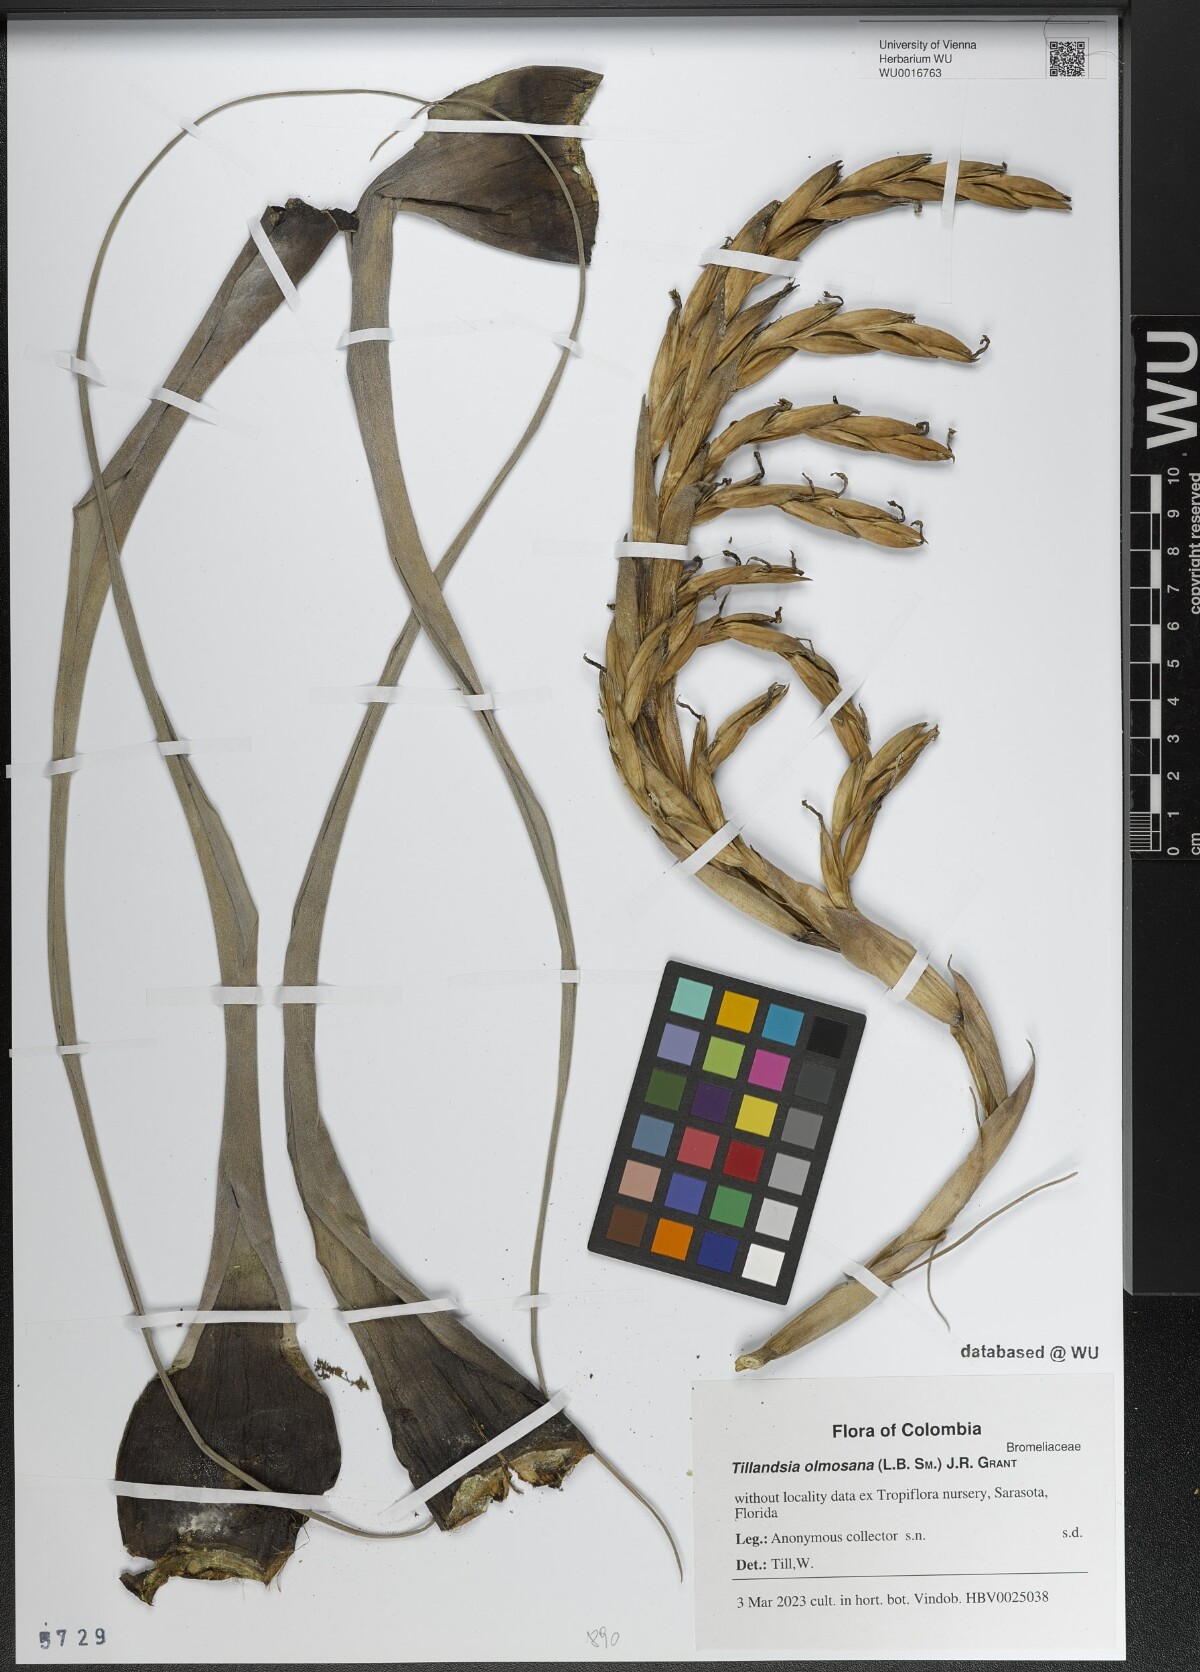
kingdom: Plantae
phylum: Tracheophyta
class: Liliopsida
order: Poales
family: Bromeliaceae
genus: Vriesea
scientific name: Vriesea olmosana
